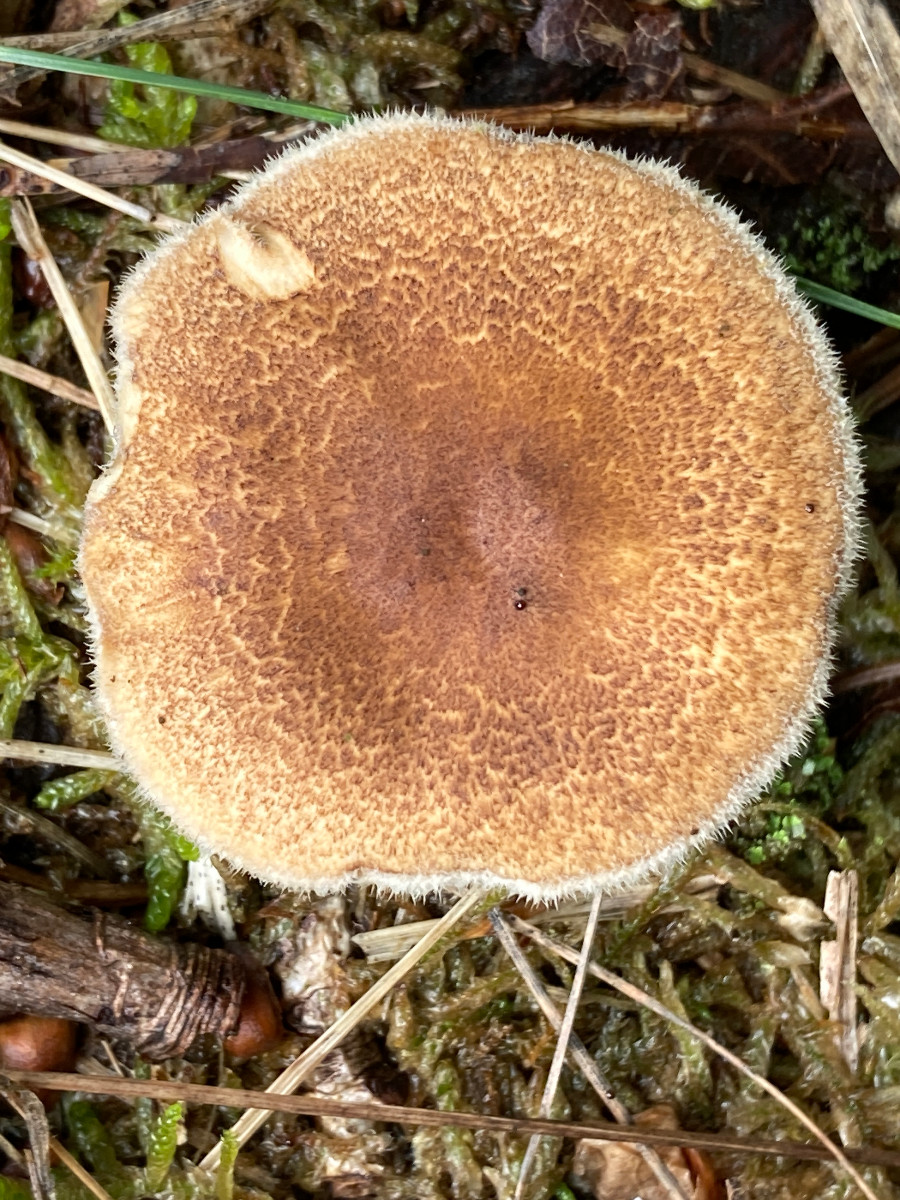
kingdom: Fungi
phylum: Basidiomycota
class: Agaricomycetes
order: Polyporales
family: Polyporaceae
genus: Lentinus
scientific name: Lentinus substrictus
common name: forårs-stilkporesvamp
